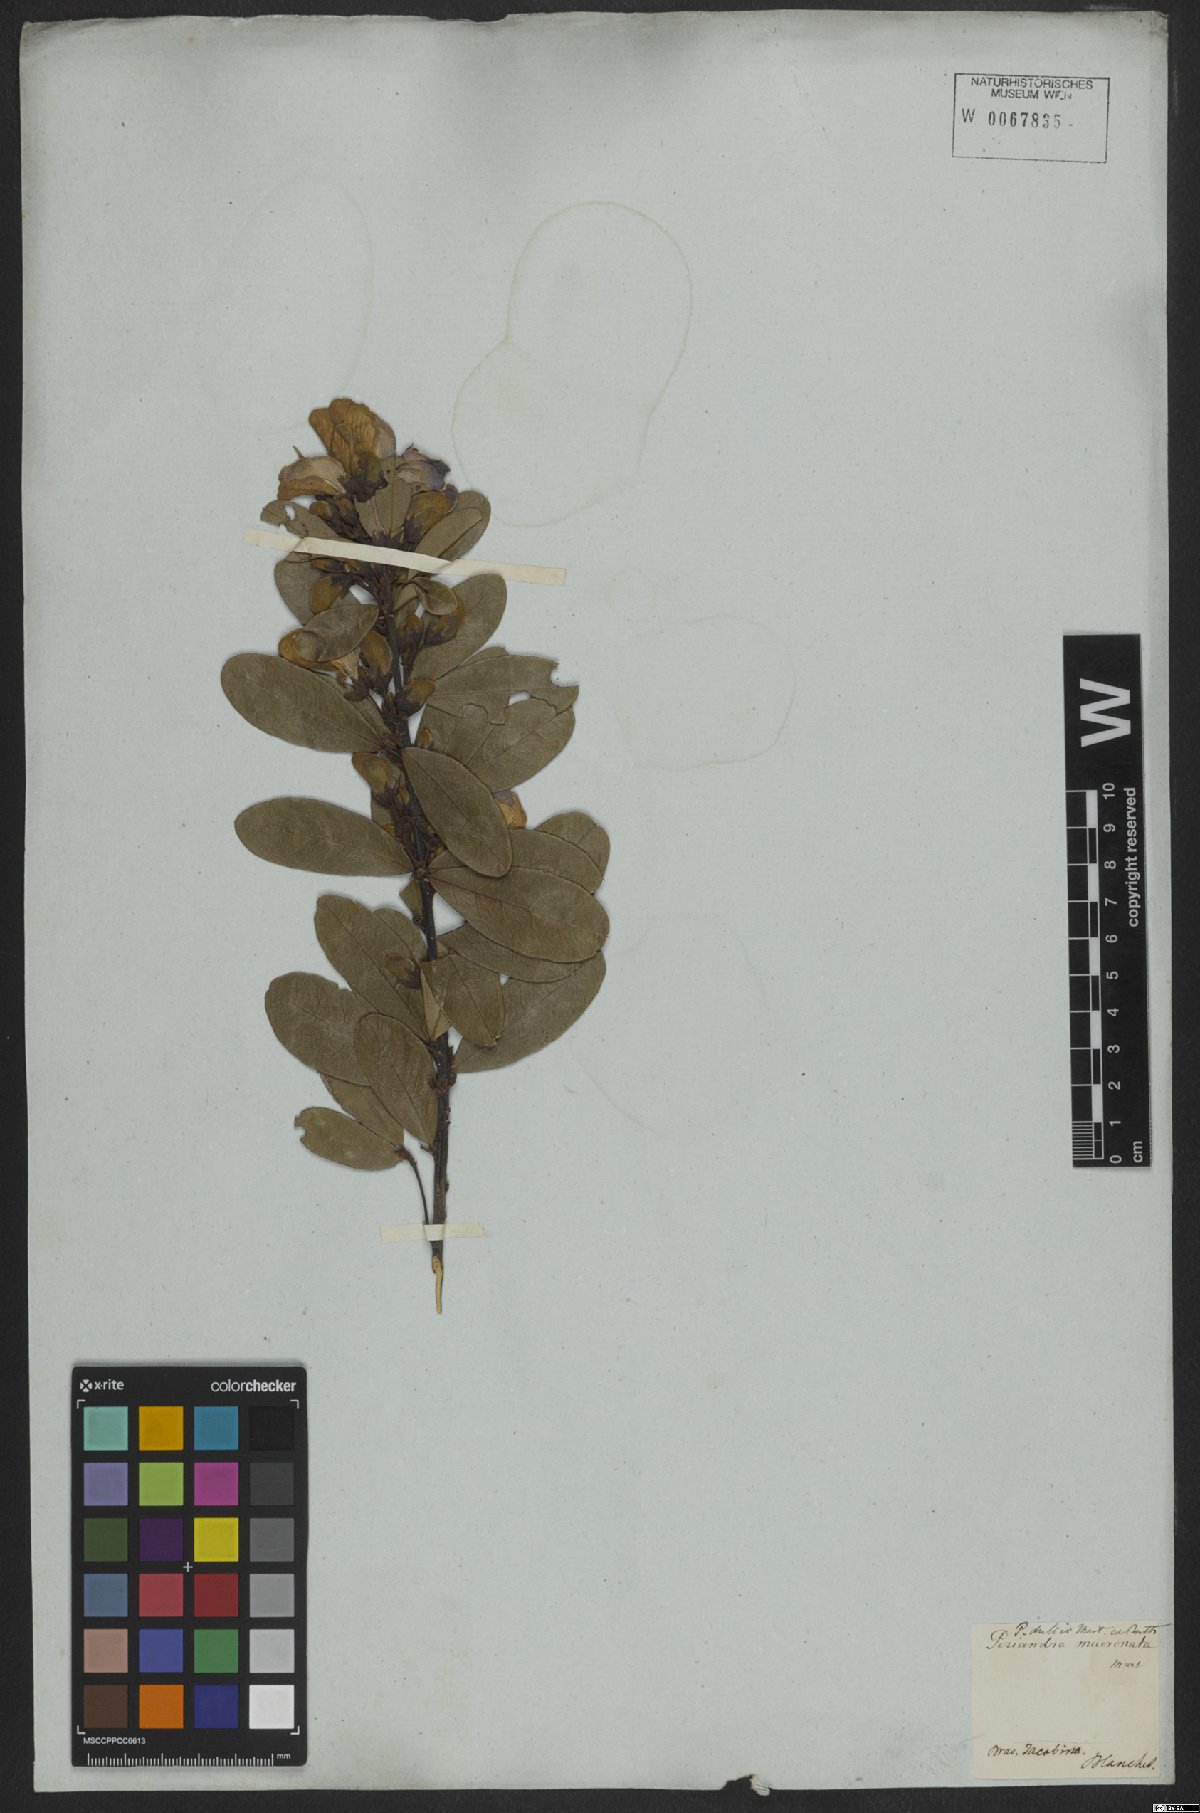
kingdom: Plantae
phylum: Tracheophyta
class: Magnoliopsida
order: Fabales
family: Fabaceae
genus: Periandra
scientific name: Periandra mediterranea
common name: Brazilian licorice
